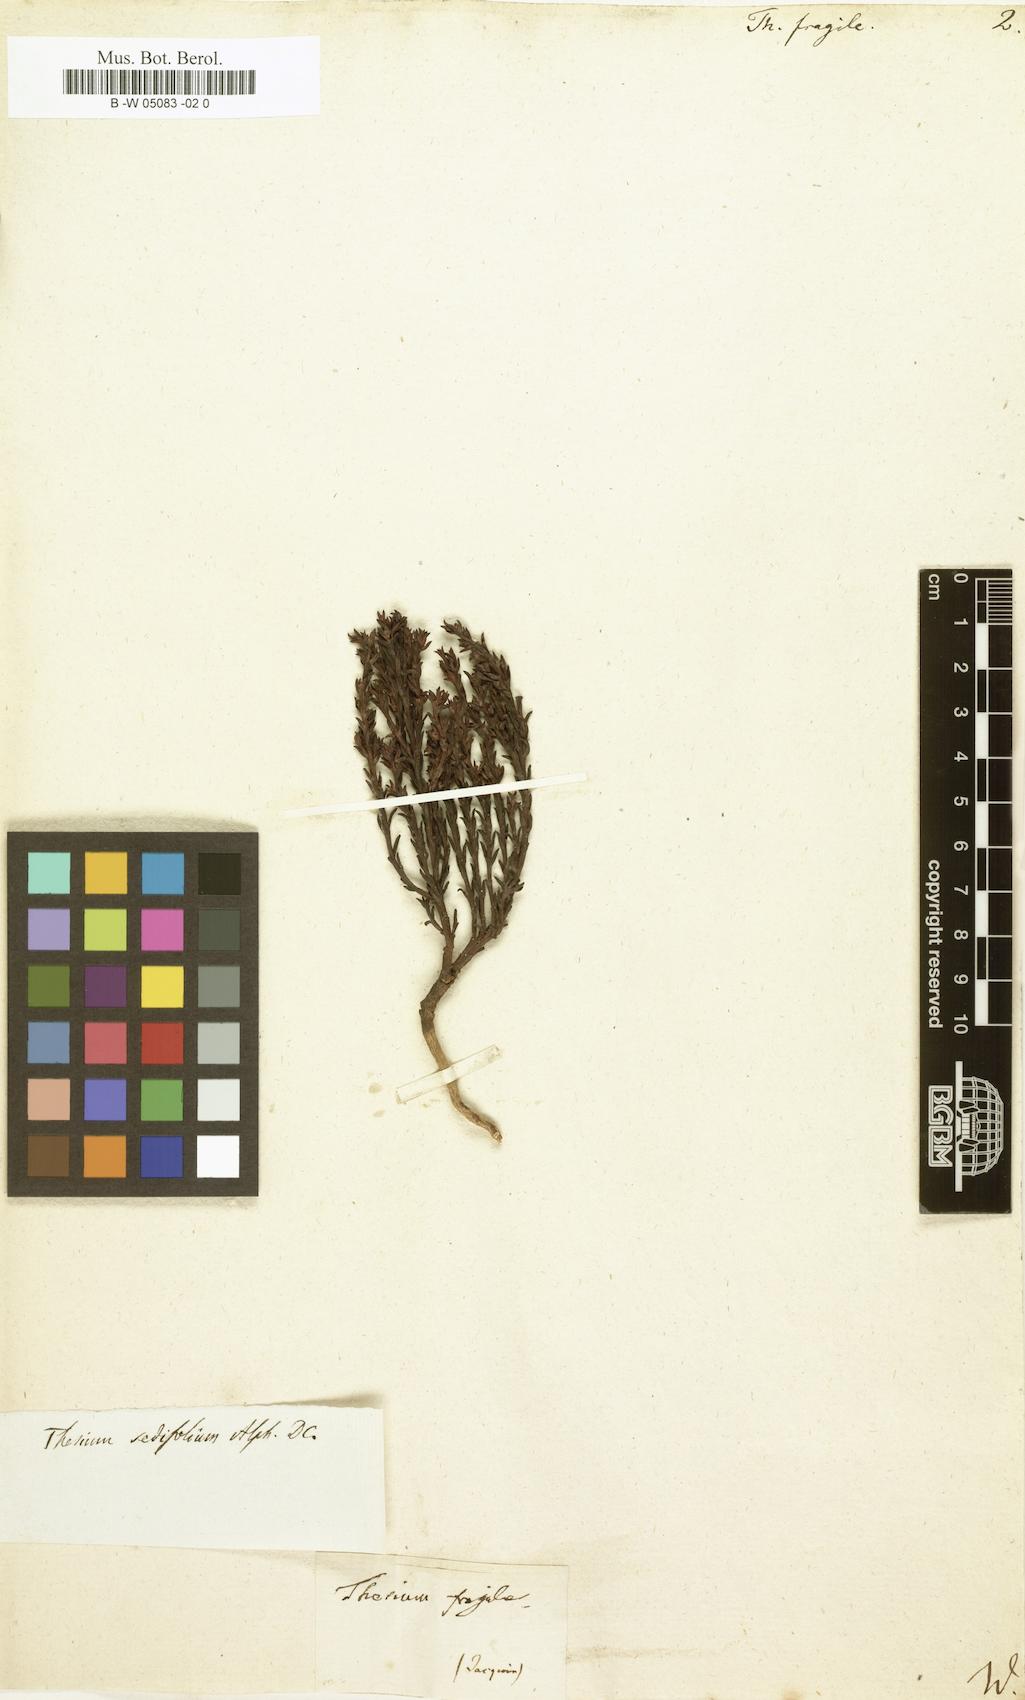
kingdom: Plantae
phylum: Tracheophyta
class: Magnoliopsida
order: Santalales
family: Thesiaceae
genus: Thesium
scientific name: Thesium fragile
